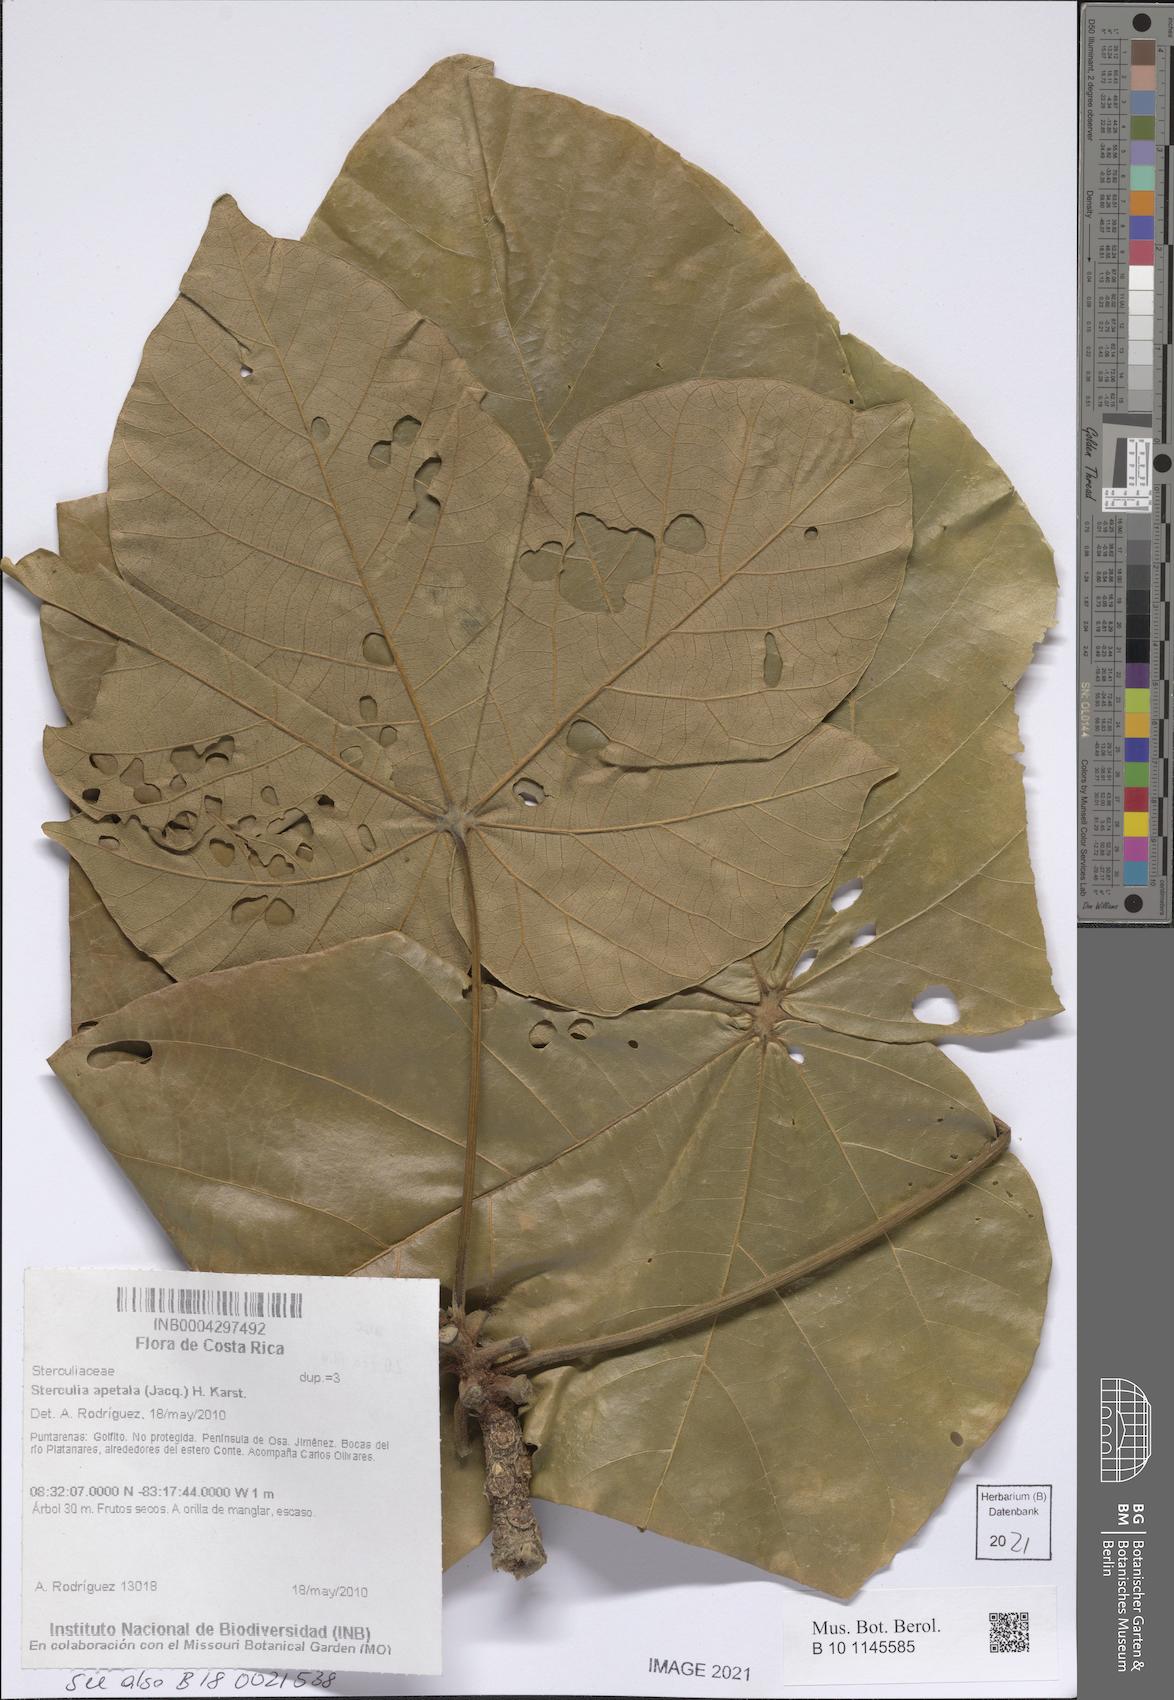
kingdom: Plantae
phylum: Tracheophyta
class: Magnoliopsida
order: Malvales
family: Malvaceae
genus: Sterculia
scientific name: Sterculia apetala
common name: Panama tree
